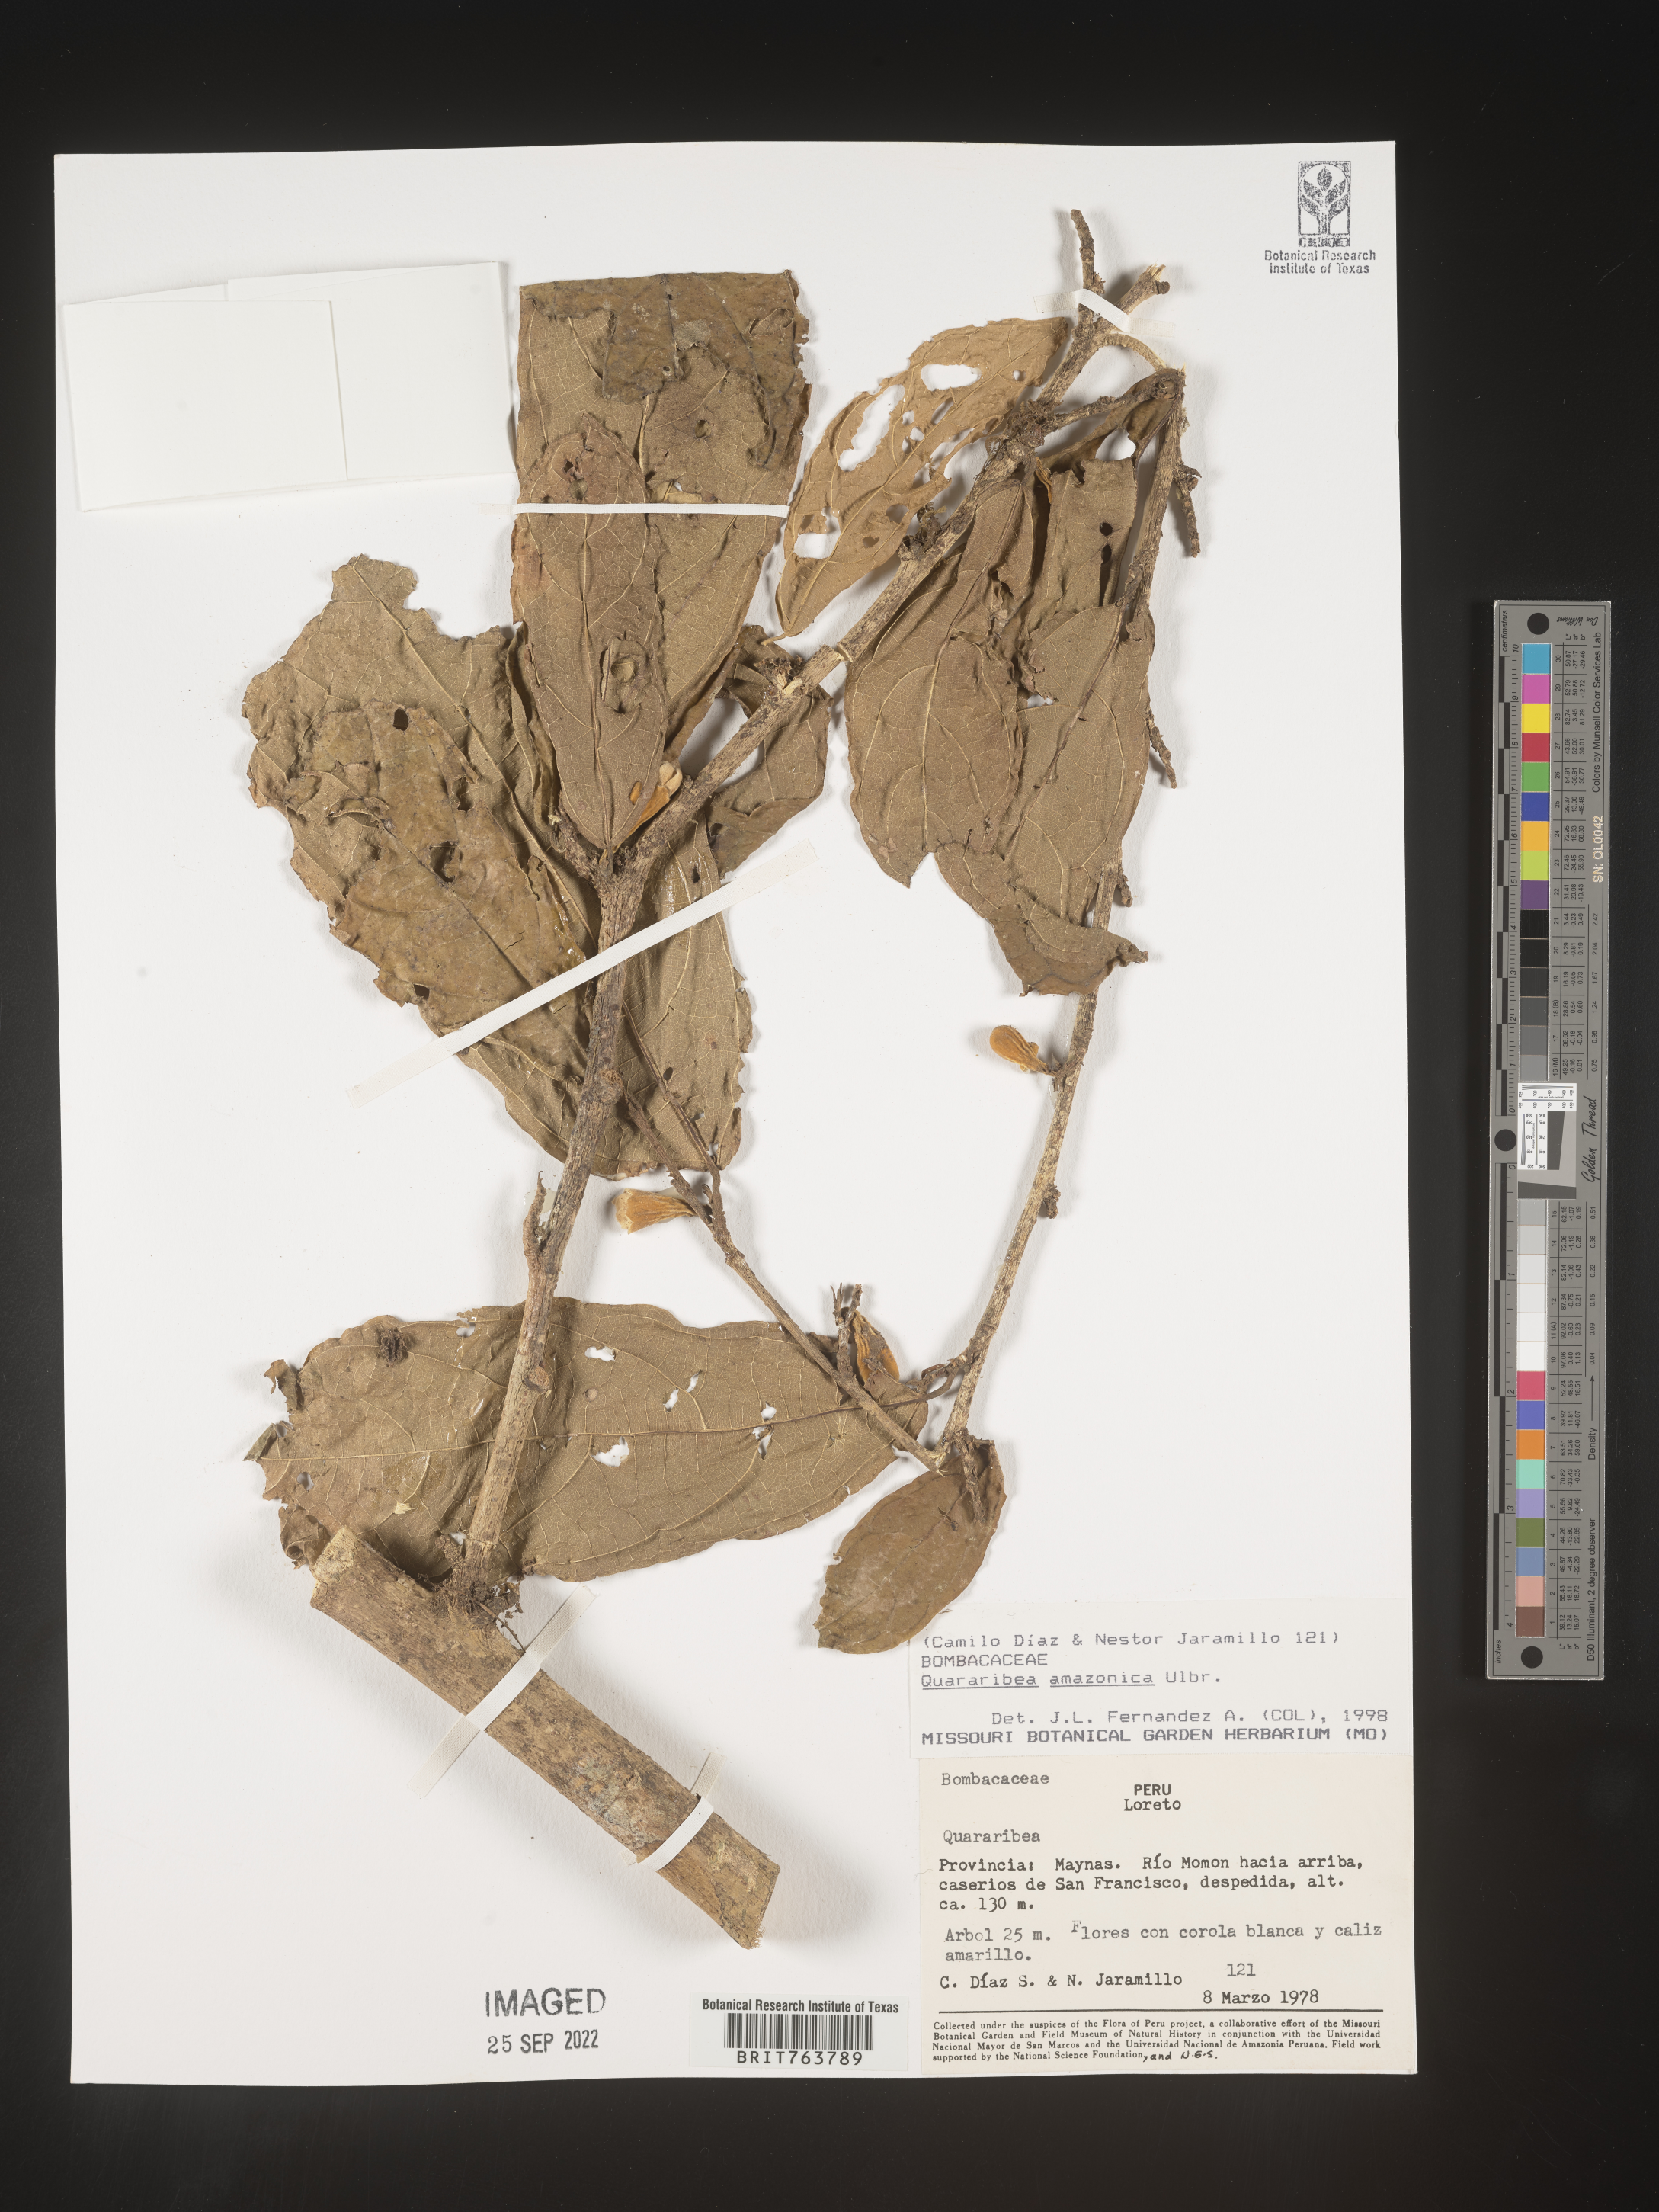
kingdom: Plantae
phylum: Tracheophyta
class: Magnoliopsida
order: Malvales
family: Malvaceae
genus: Quararibea
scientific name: Quararibea
